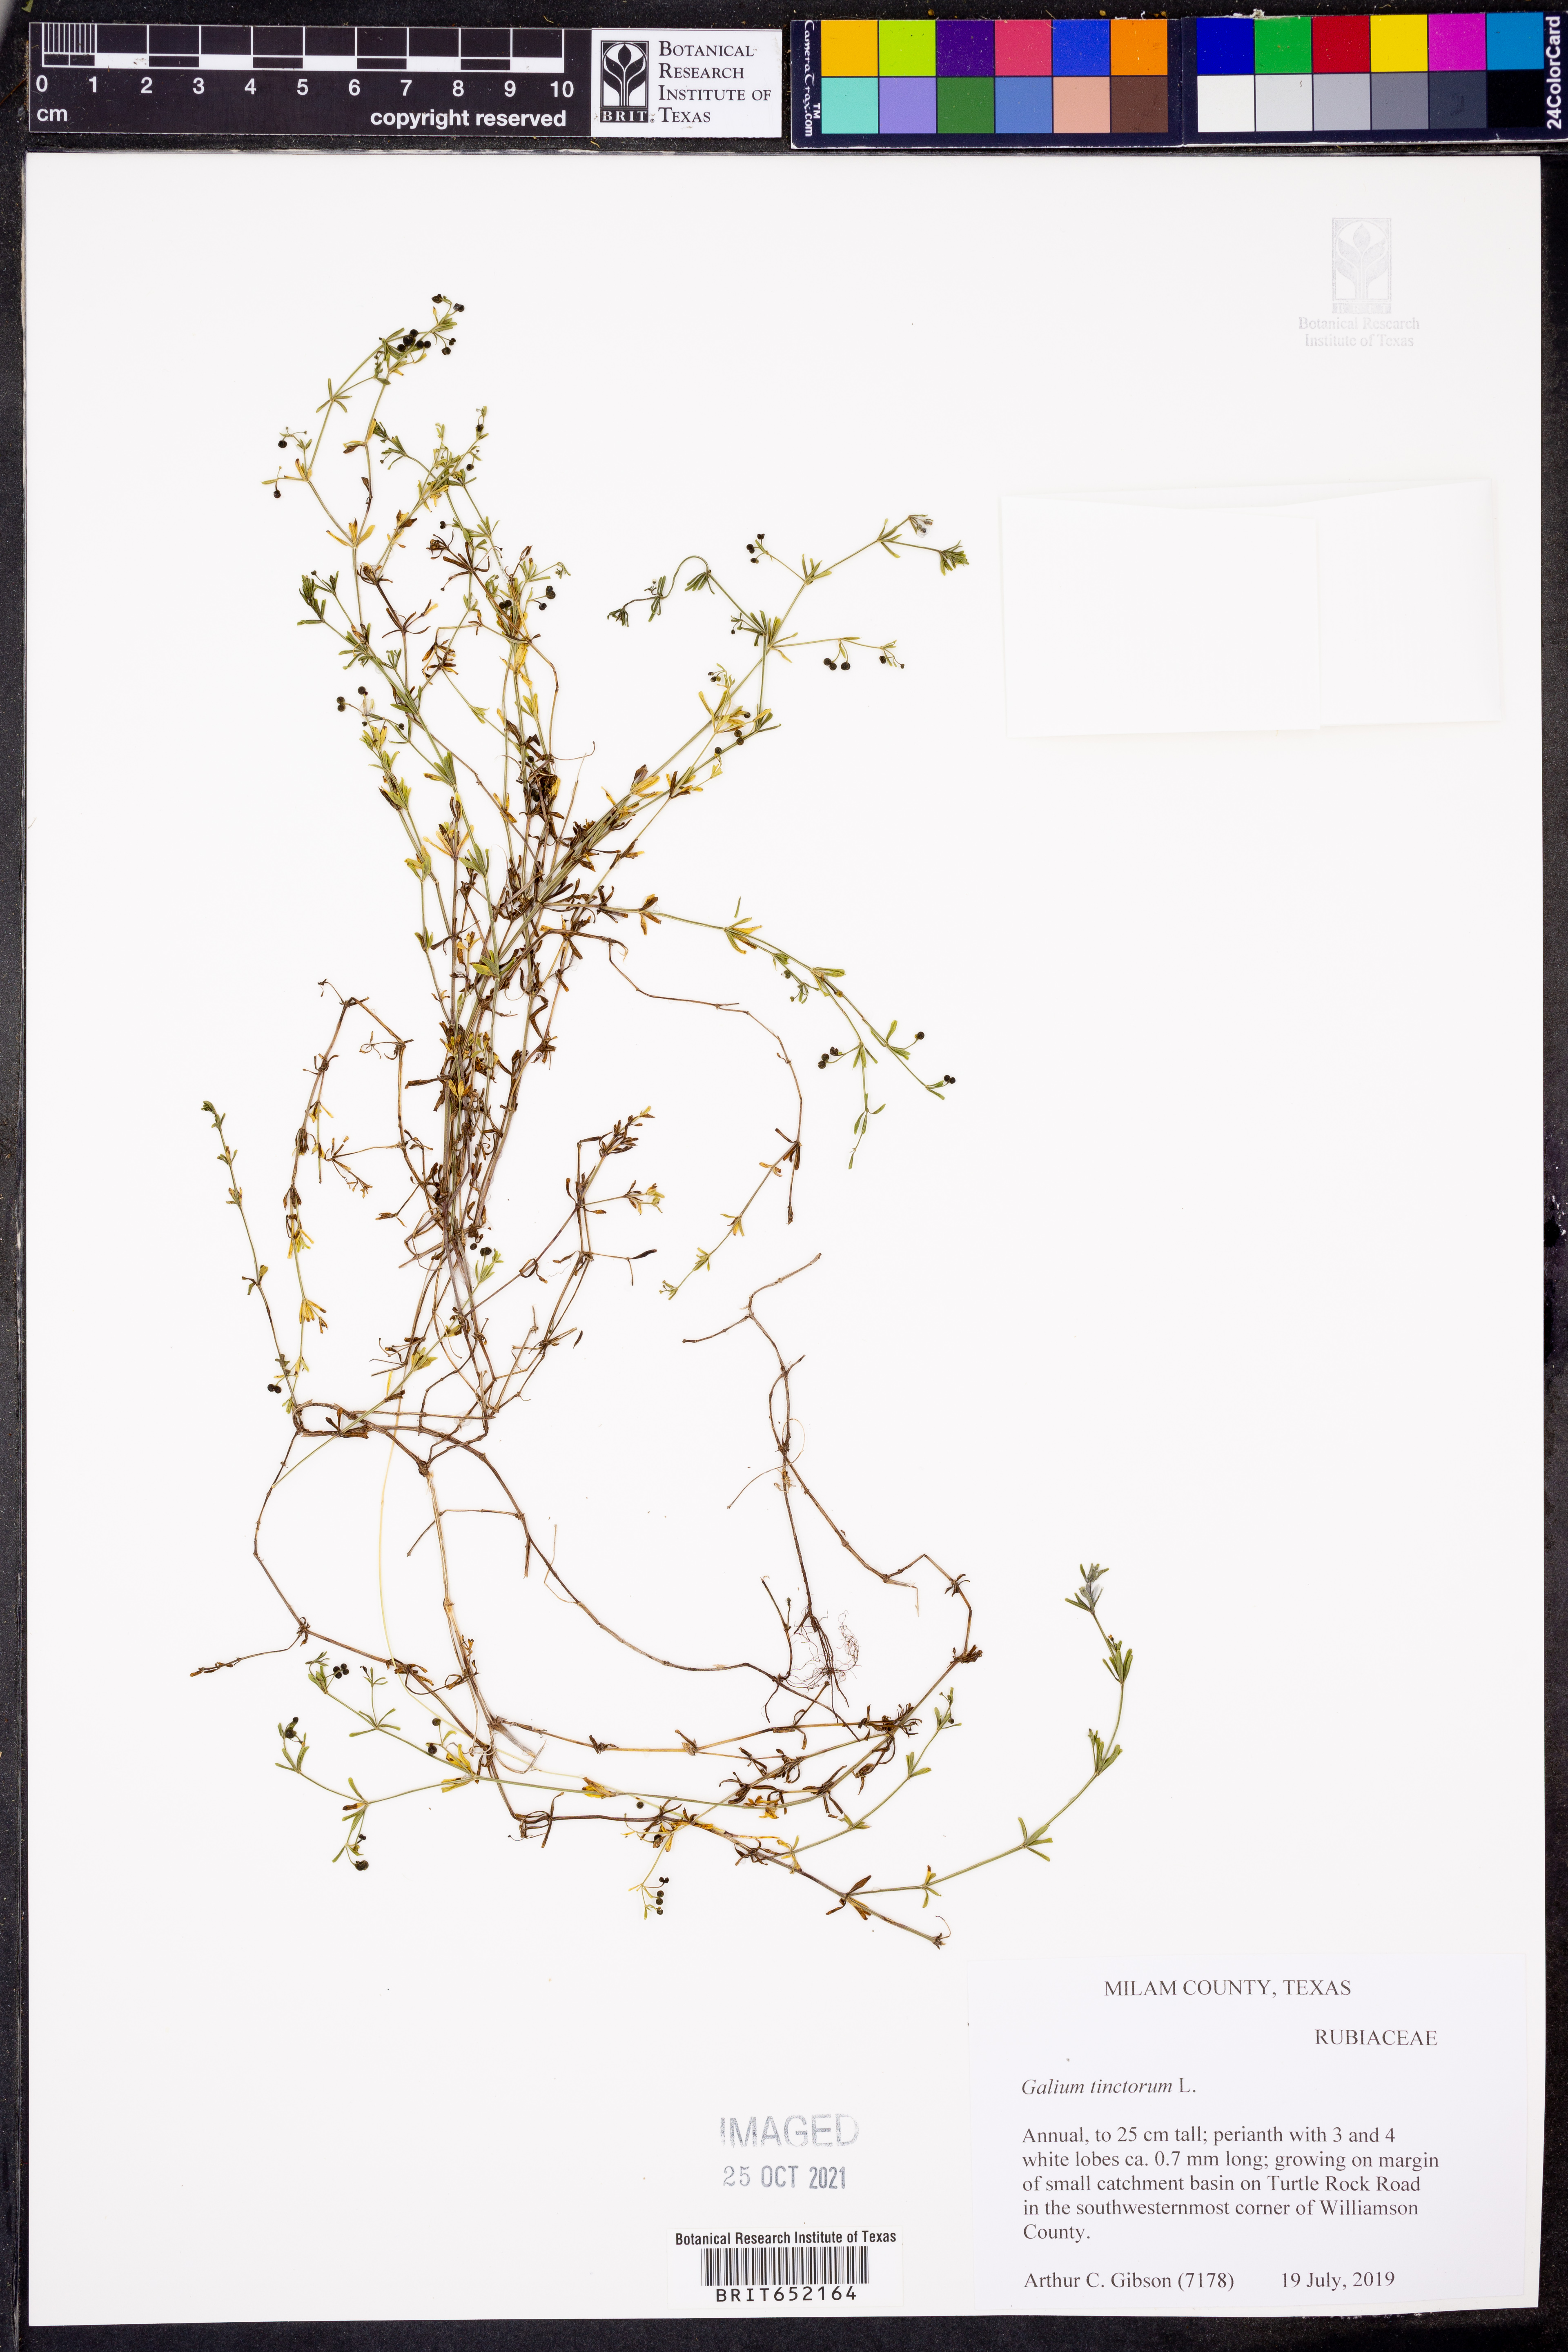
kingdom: Plantae
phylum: Tracheophyta
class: Magnoliopsida
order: Gentianales
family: Rubiaceae
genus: Asperula
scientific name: Asperula tinctoria
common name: Dyer's woodruff
